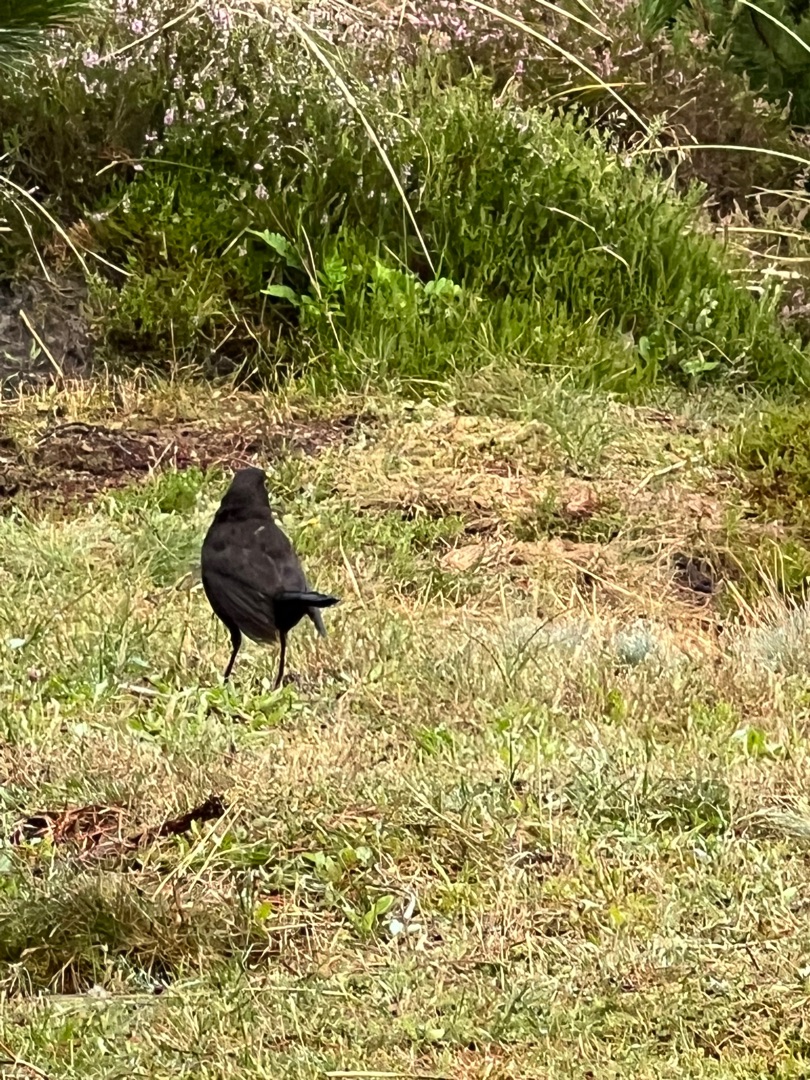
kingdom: Animalia
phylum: Chordata
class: Aves
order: Passeriformes
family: Turdidae
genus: Turdus
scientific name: Turdus merula
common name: Solsort
